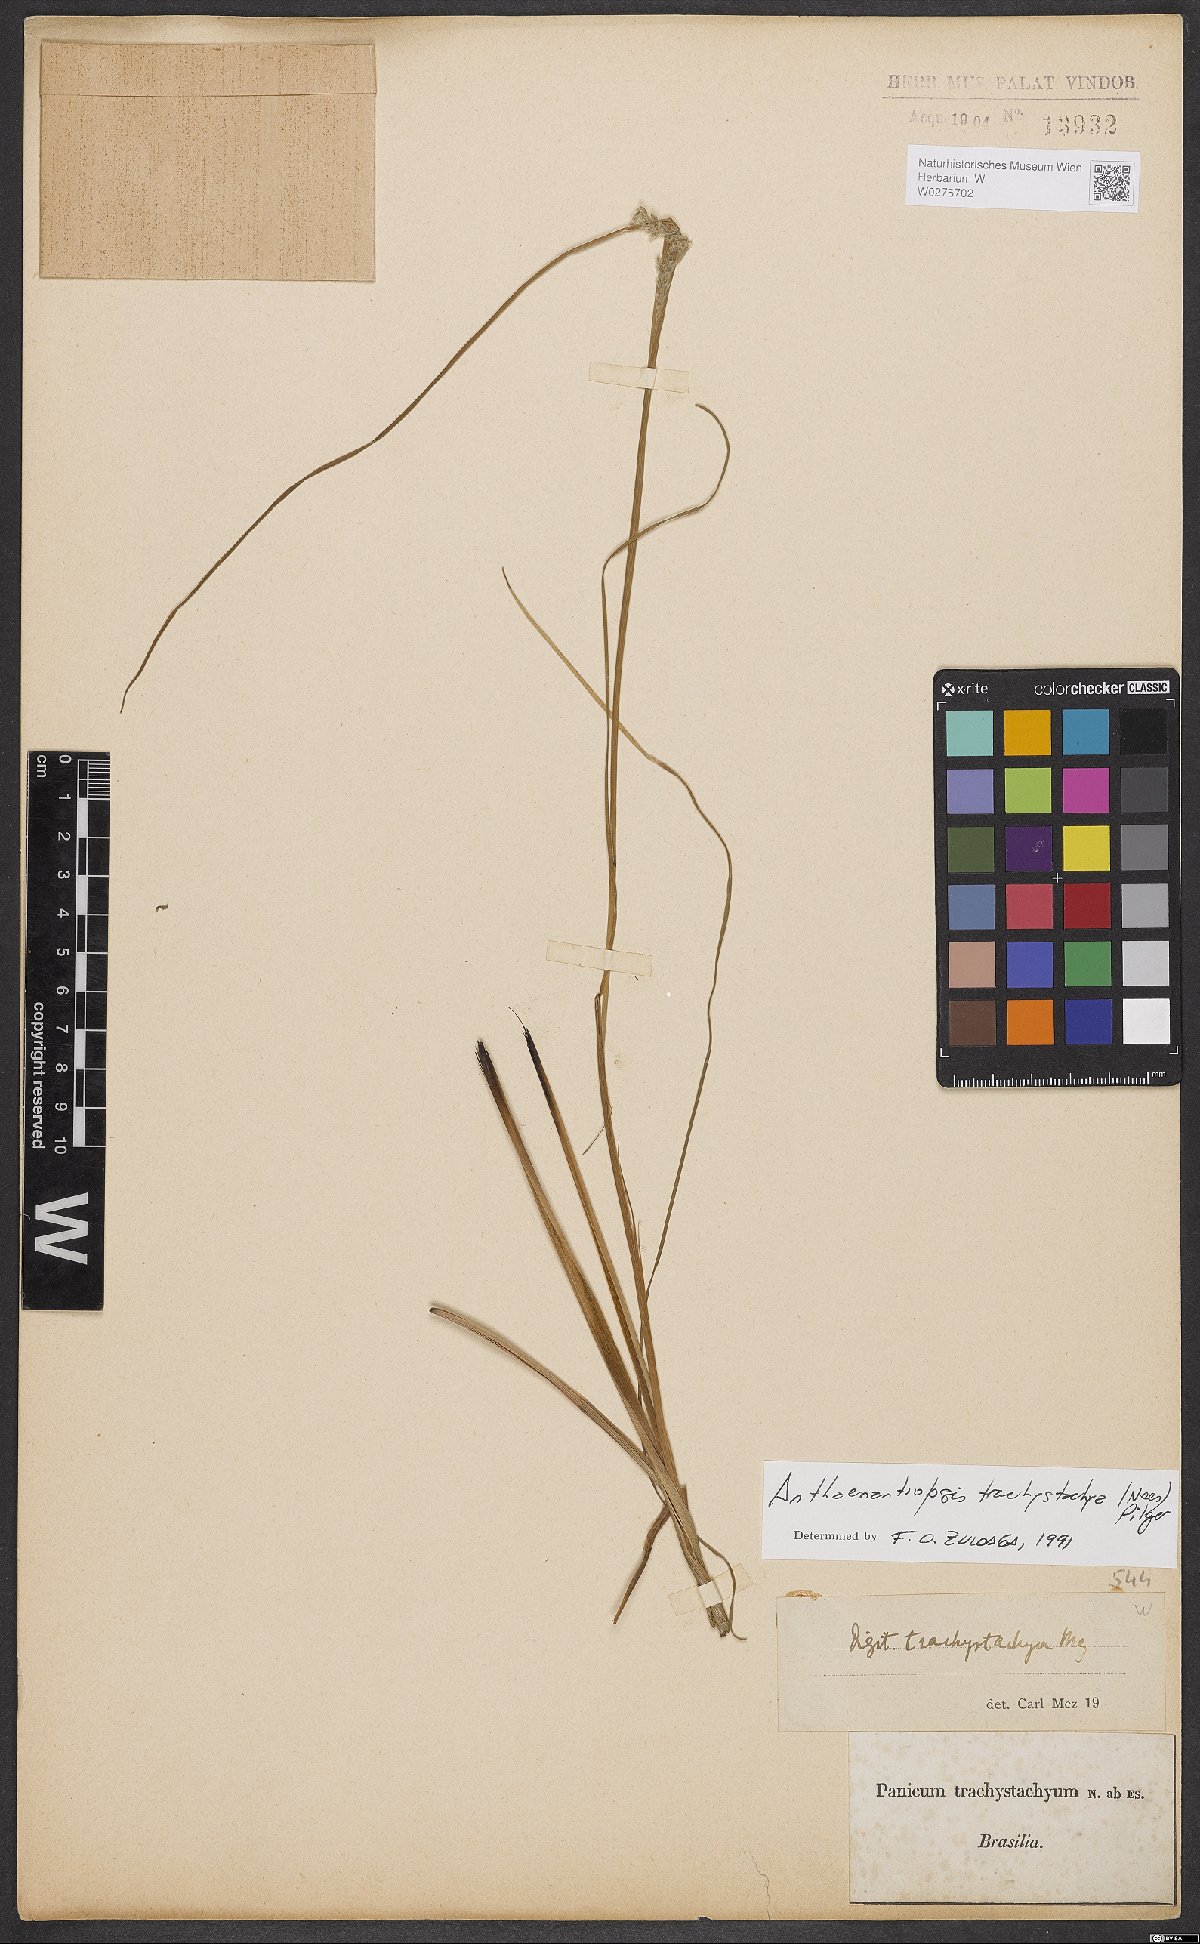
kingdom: Plantae
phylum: Tracheophyta
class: Liliopsida
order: Poales
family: Poaceae
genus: Anthaenantiopsis
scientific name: Anthaenantiopsis trachystachya
